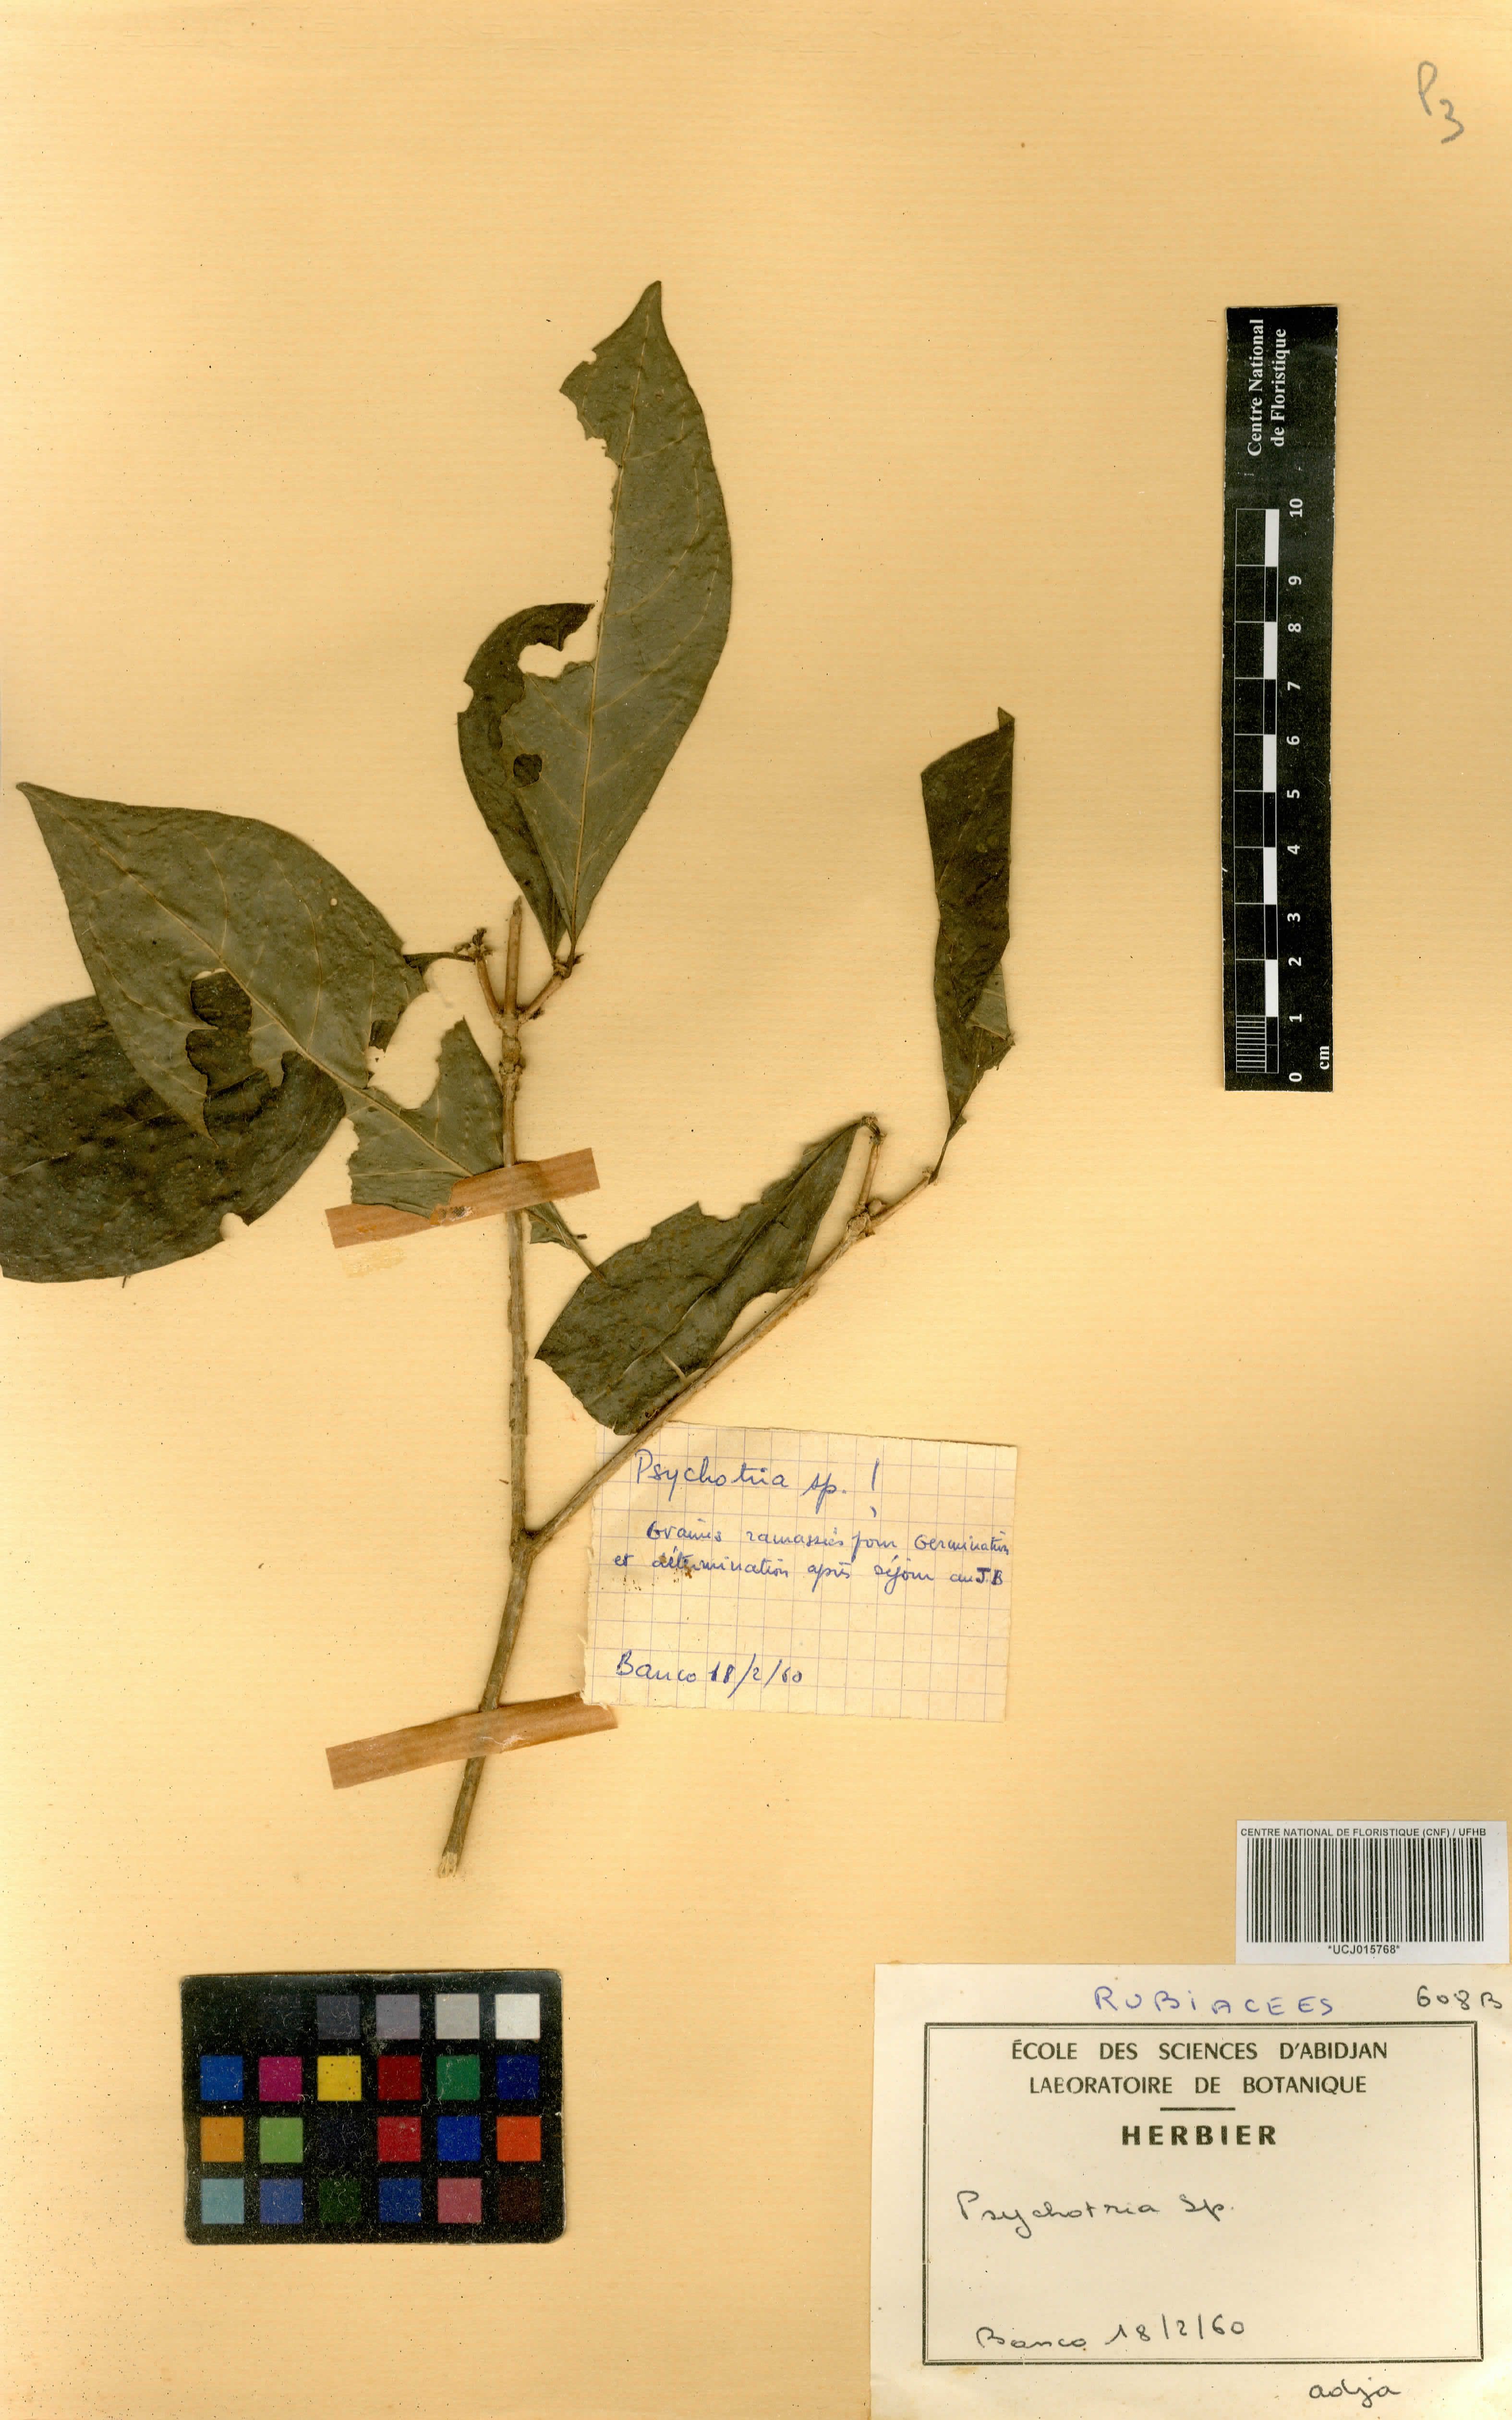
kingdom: Plantae
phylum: Tracheophyta
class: Magnoliopsida
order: Gentianales
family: Rubiaceae
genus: Psychotria
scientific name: Psychotria
